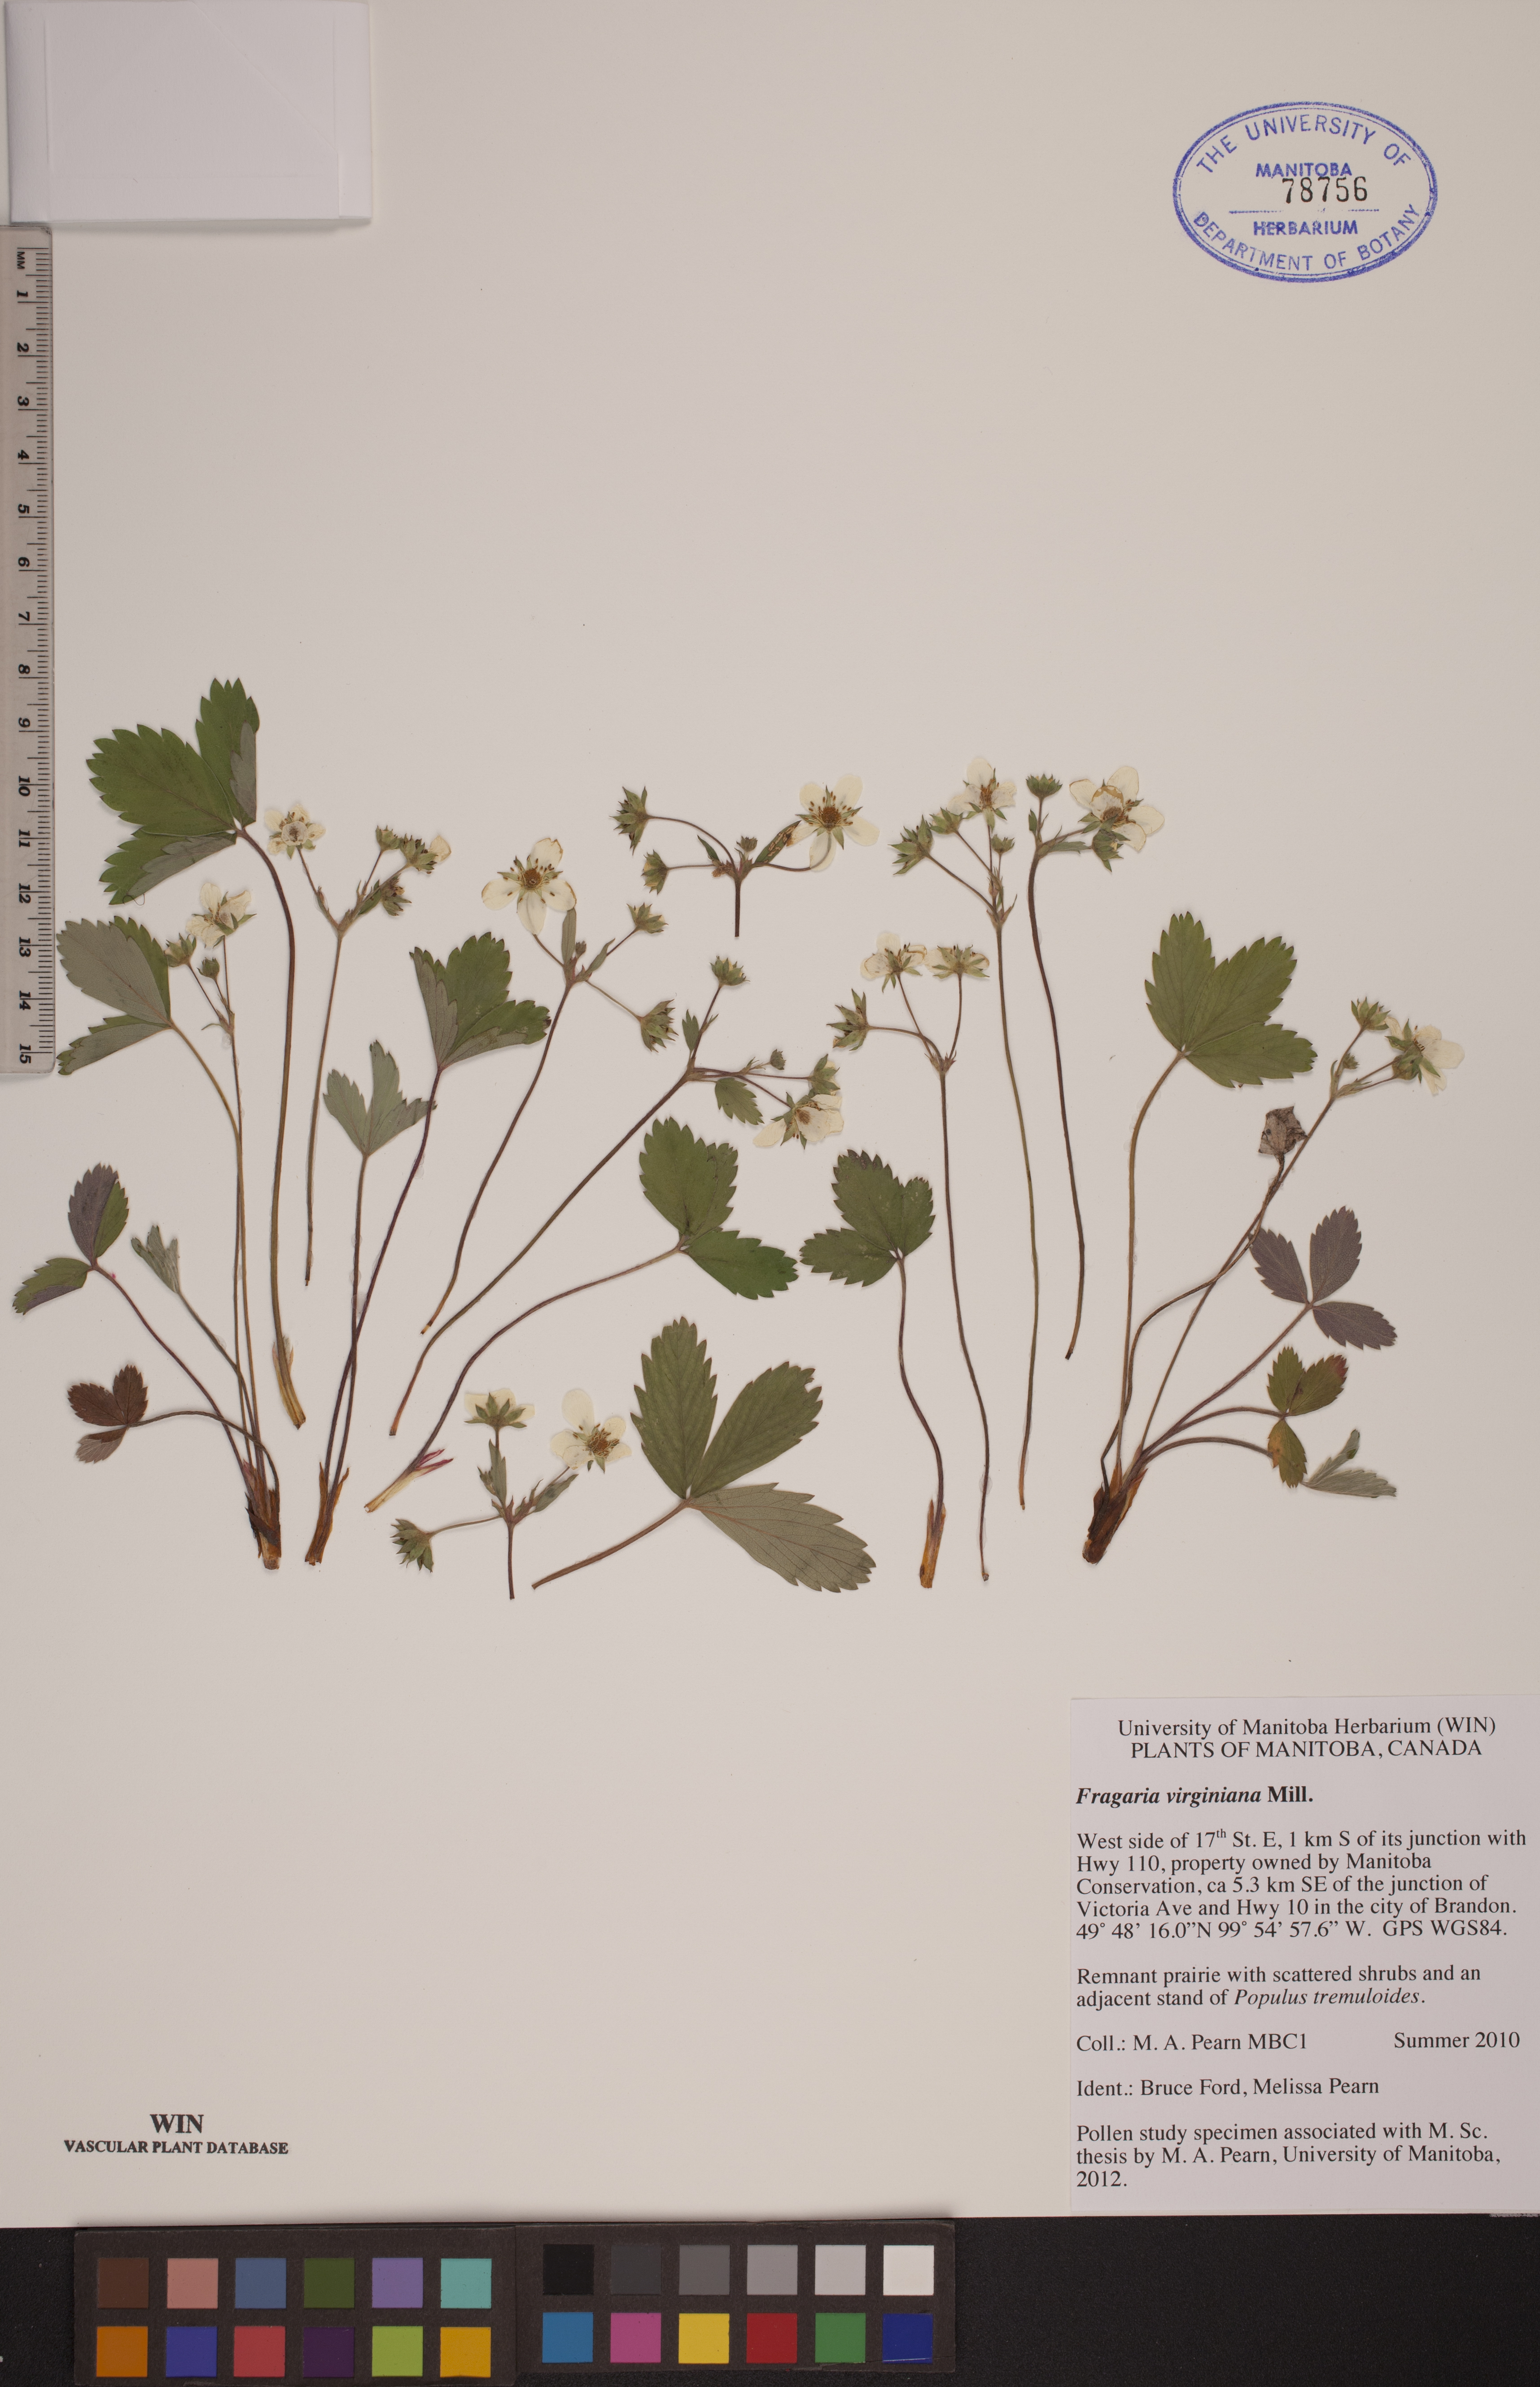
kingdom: Plantae
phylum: Tracheophyta
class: Magnoliopsida
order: Rosales
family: Rosaceae
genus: Fragaria
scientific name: Fragaria virginiana
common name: Thickleaved wild strawberry
